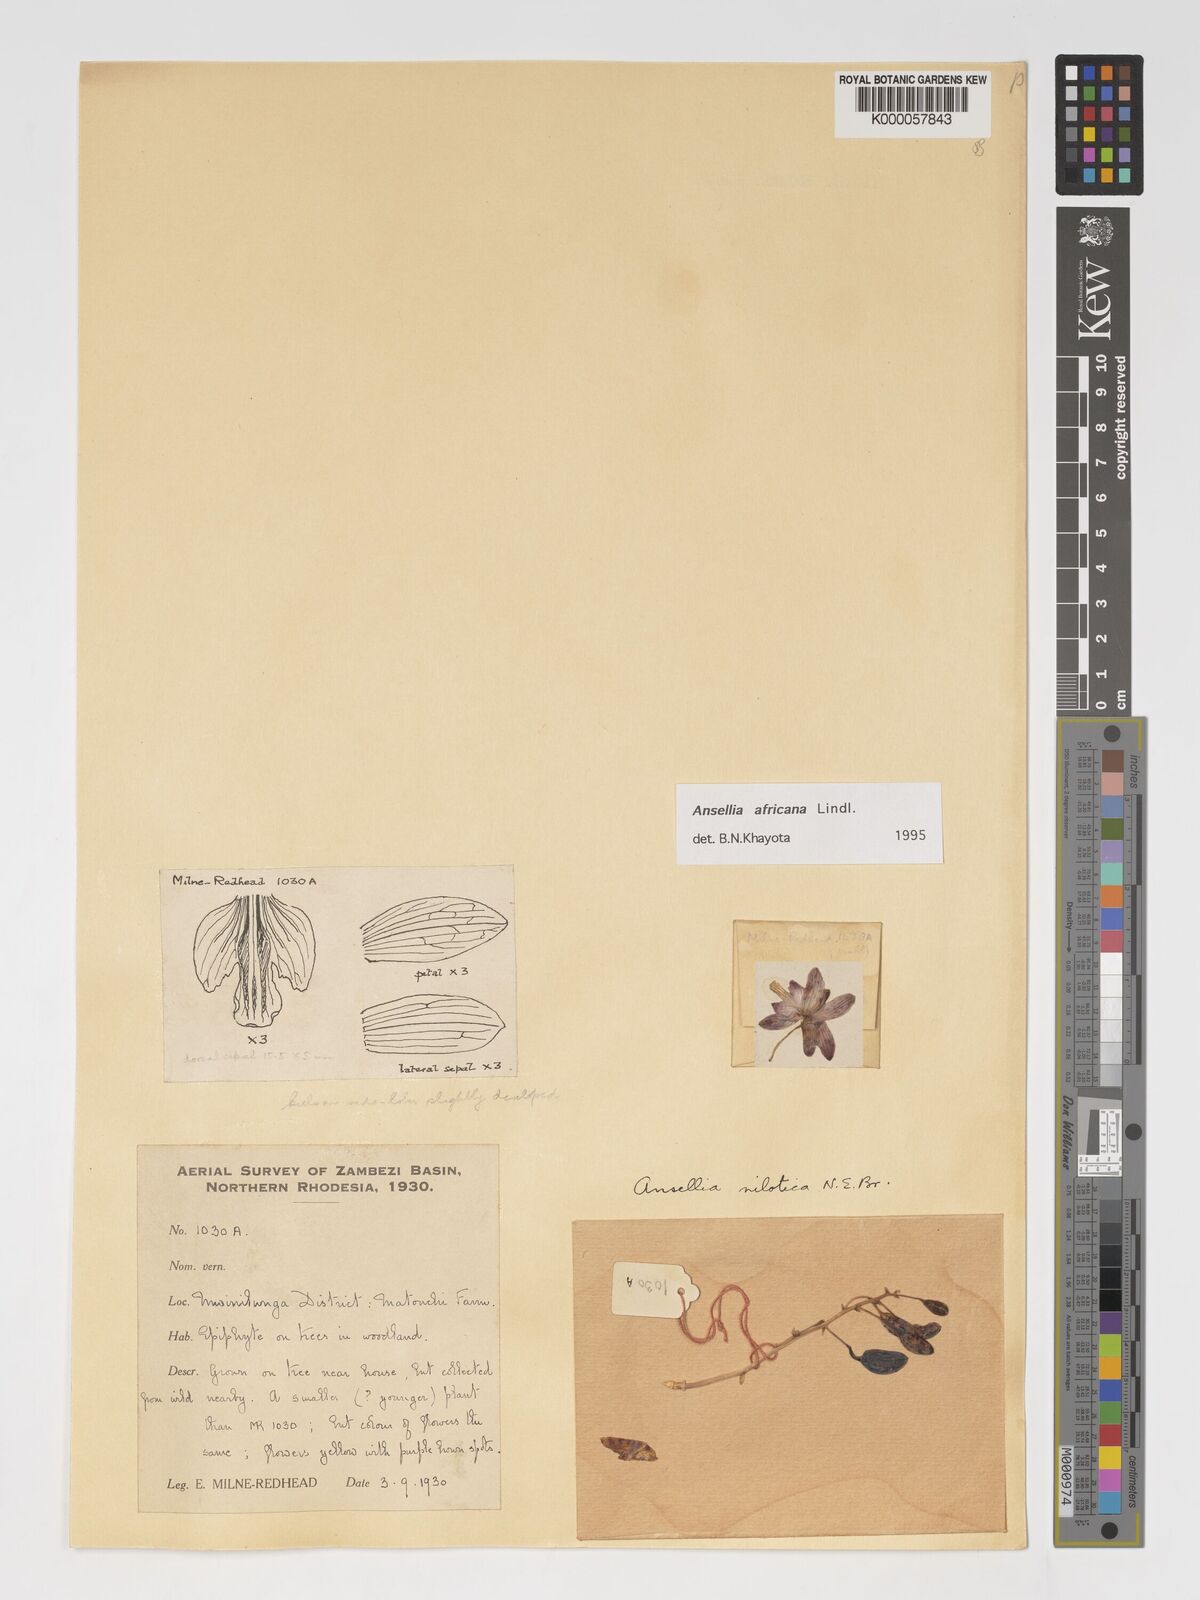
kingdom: Plantae
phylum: Tracheophyta
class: Liliopsida
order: Asparagales
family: Orchidaceae
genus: Ansellia
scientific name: Ansellia africana
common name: African ansellia
